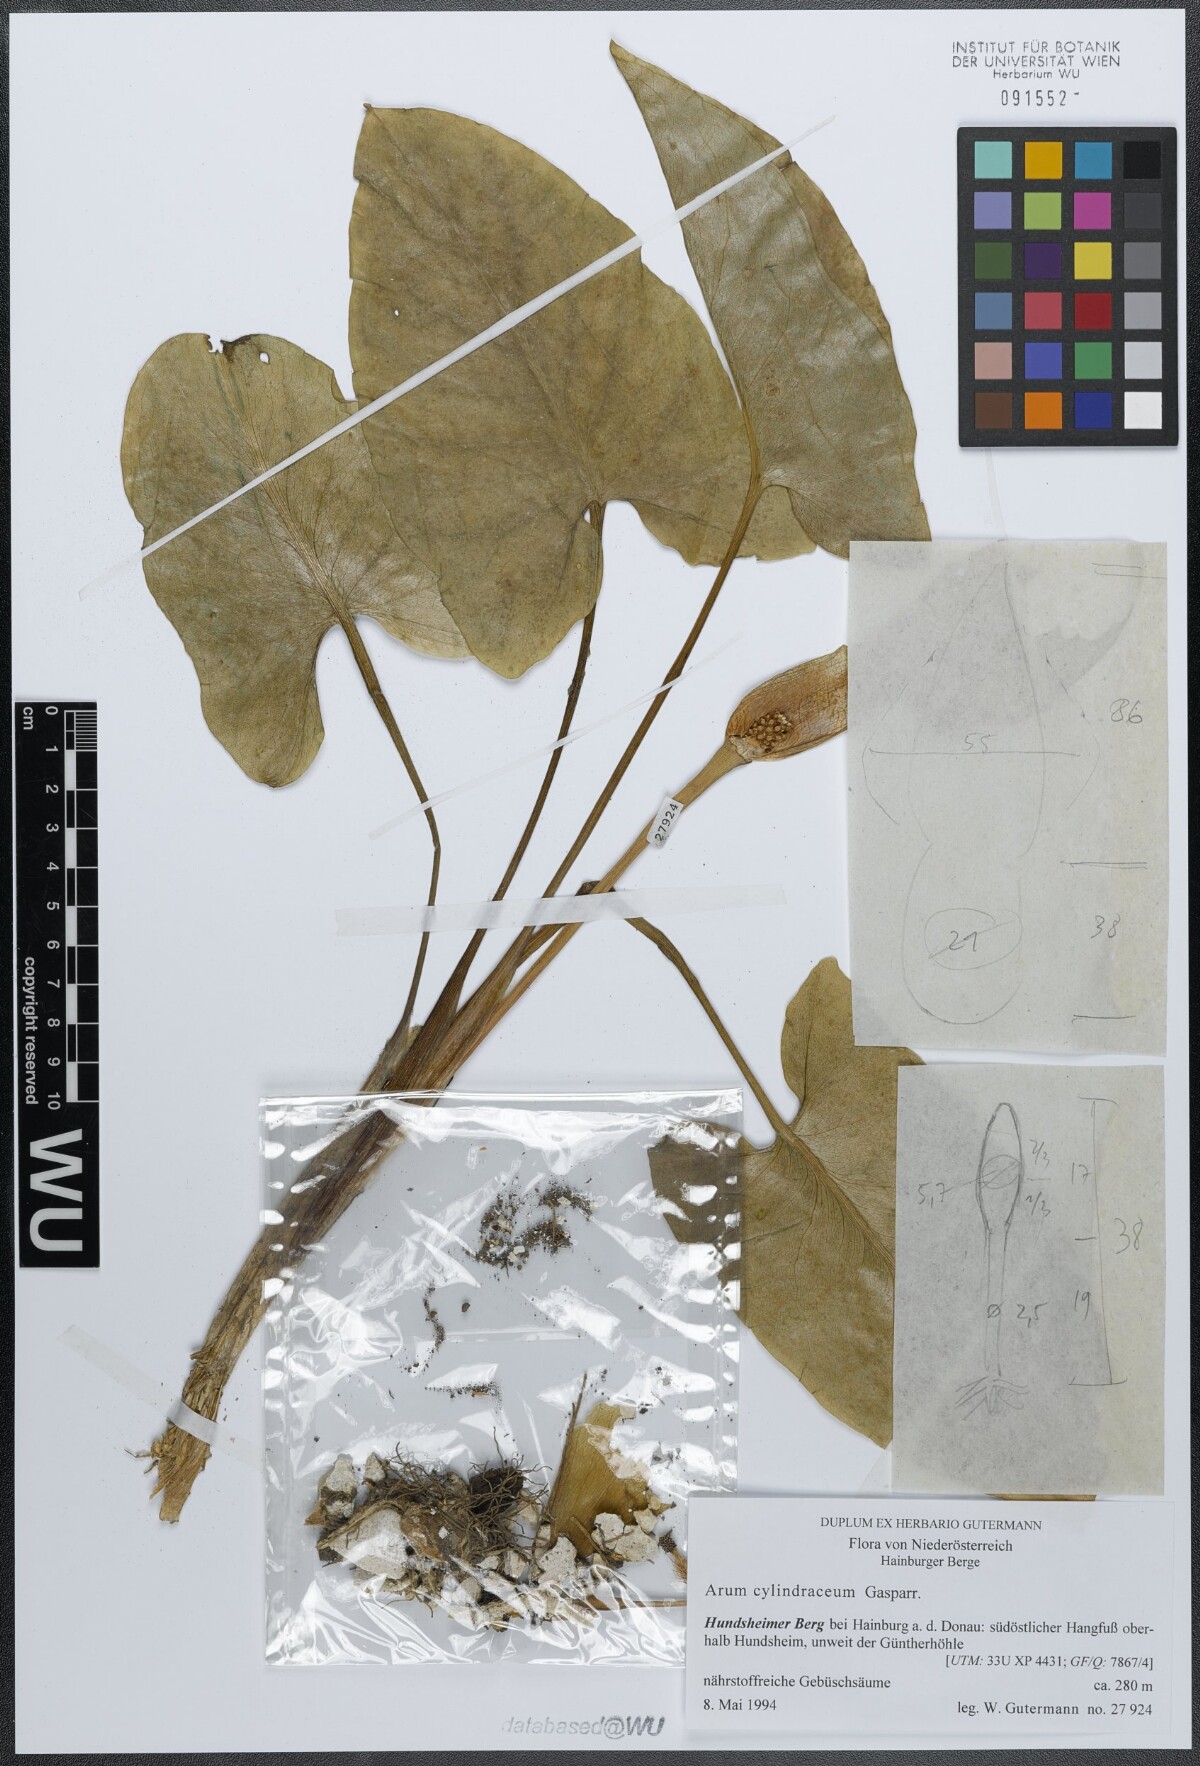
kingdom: Plantae
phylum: Tracheophyta
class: Liliopsida
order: Alismatales
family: Araceae
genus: Arum
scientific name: Arum cylindraceum
